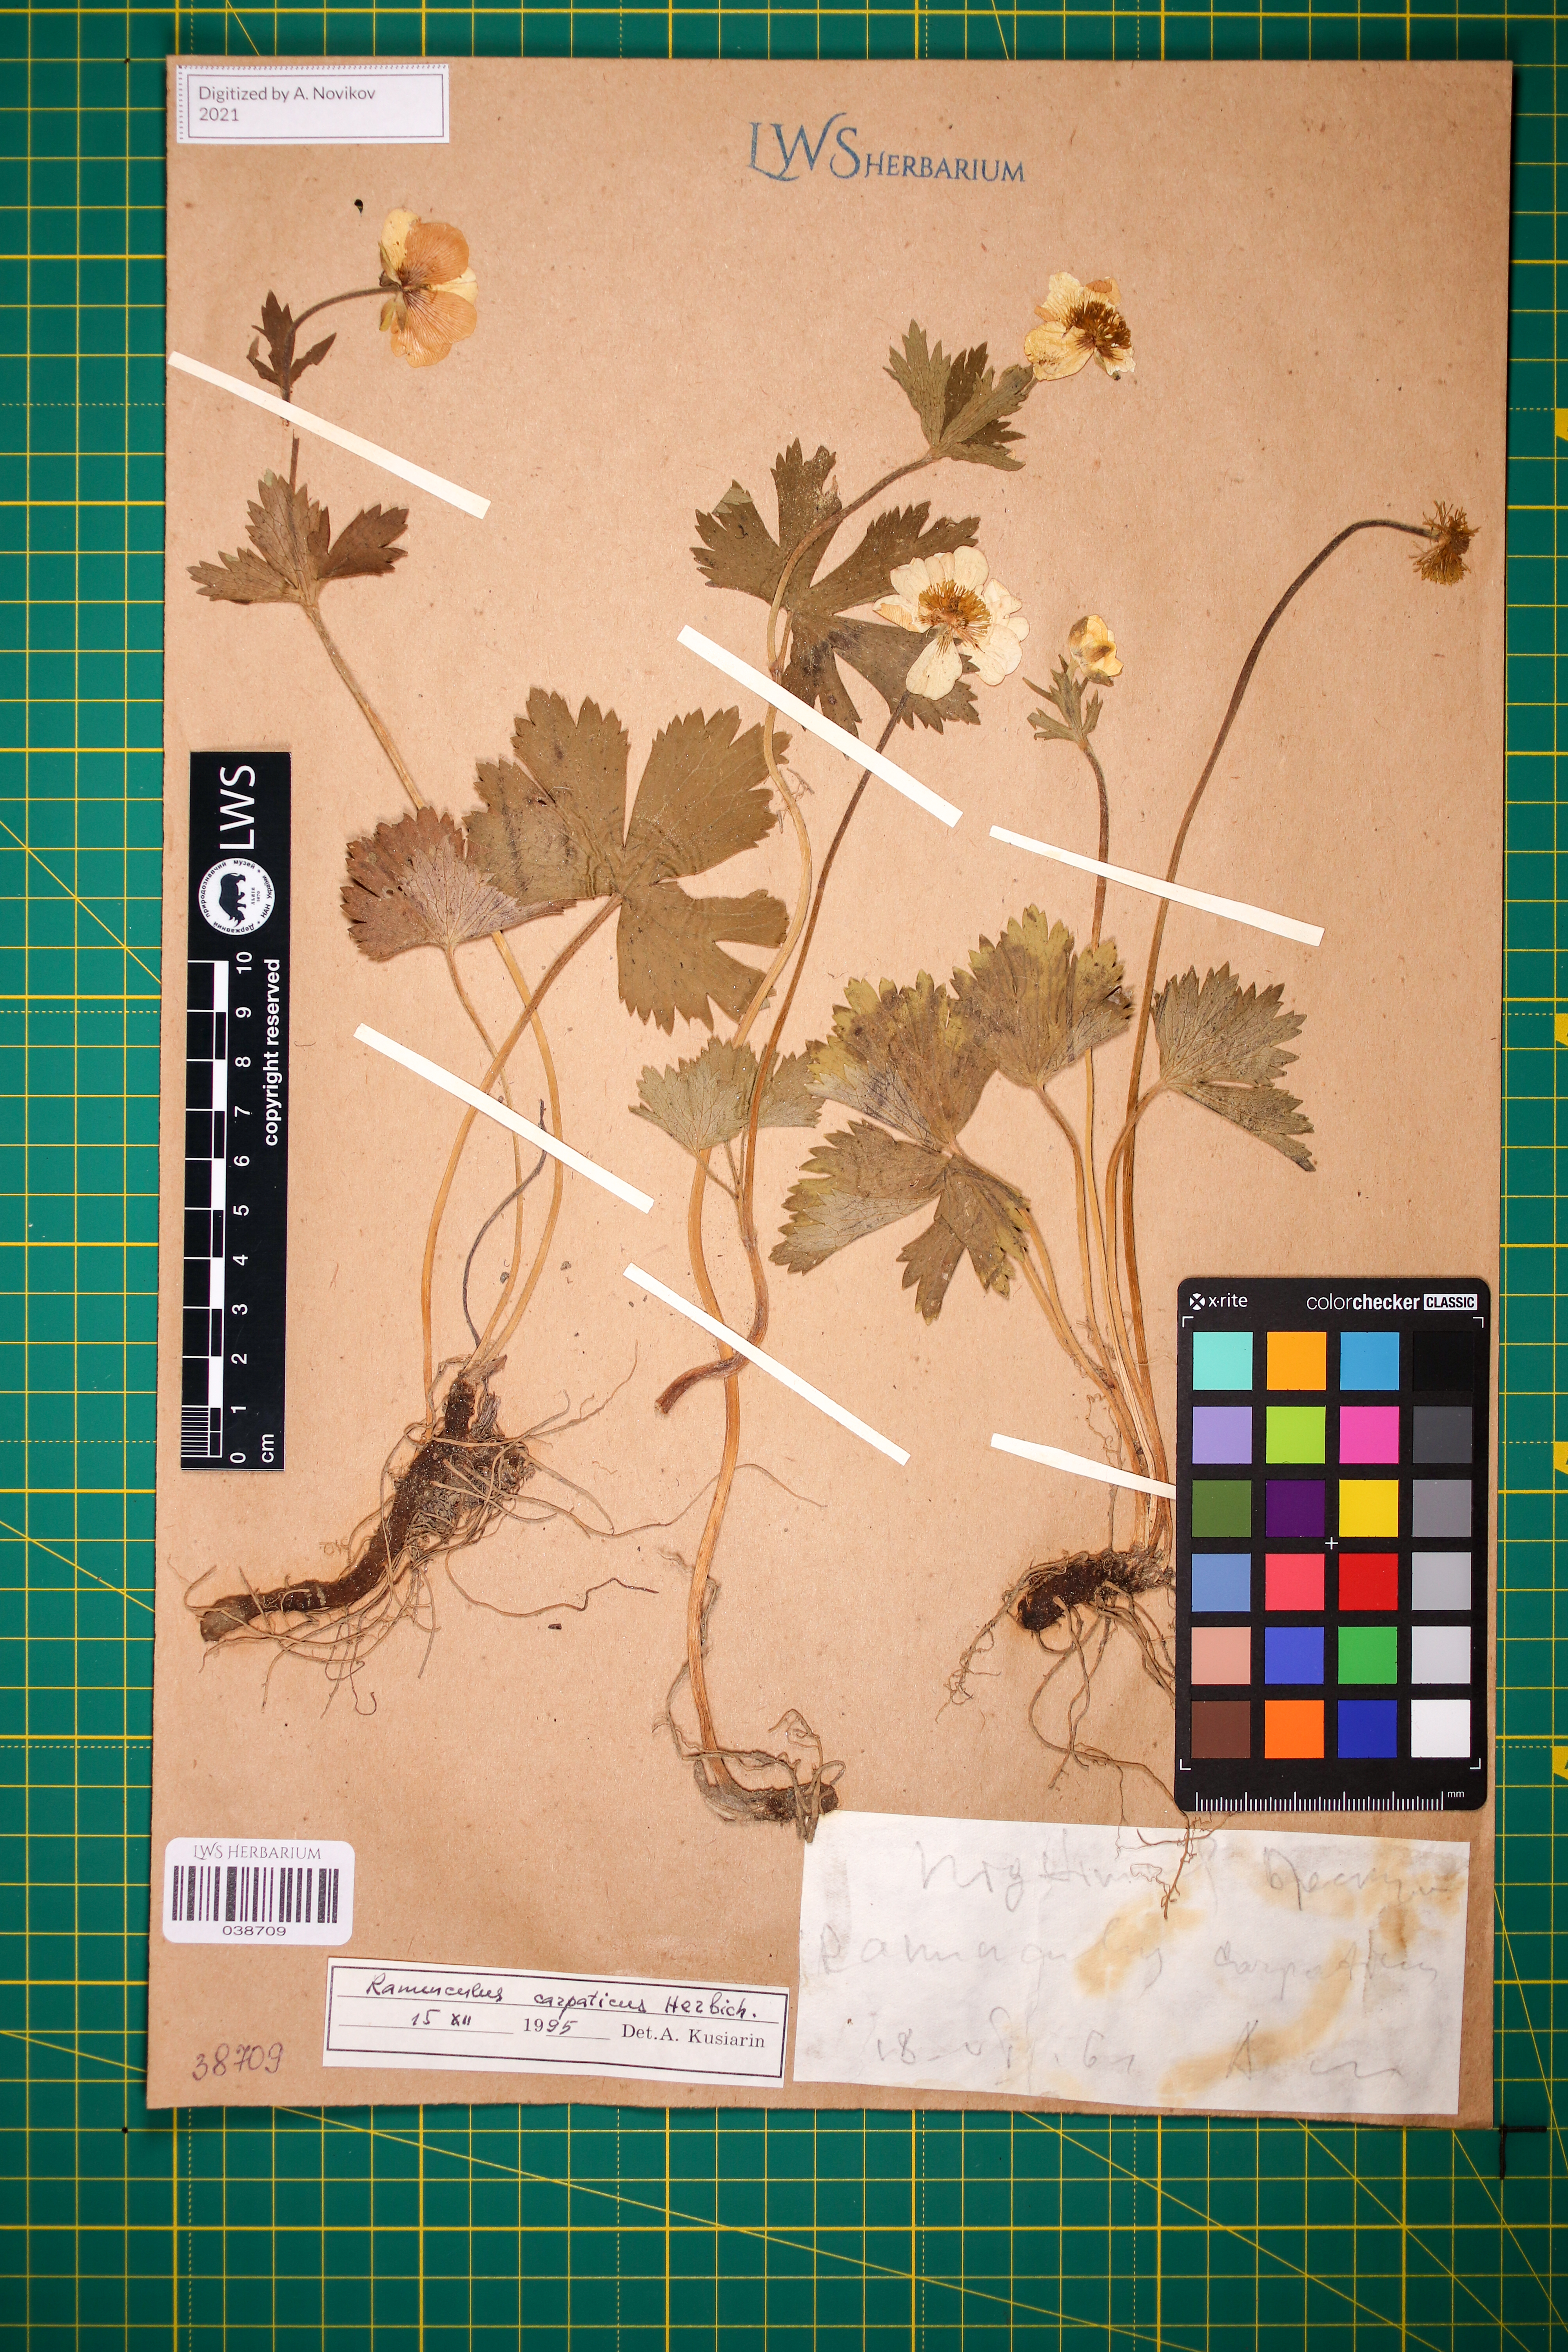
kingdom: Plantae
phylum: Tracheophyta
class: Magnoliopsida
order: Ranunculales
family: Ranunculaceae
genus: Ranunculus
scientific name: Ranunculus carpaticus
